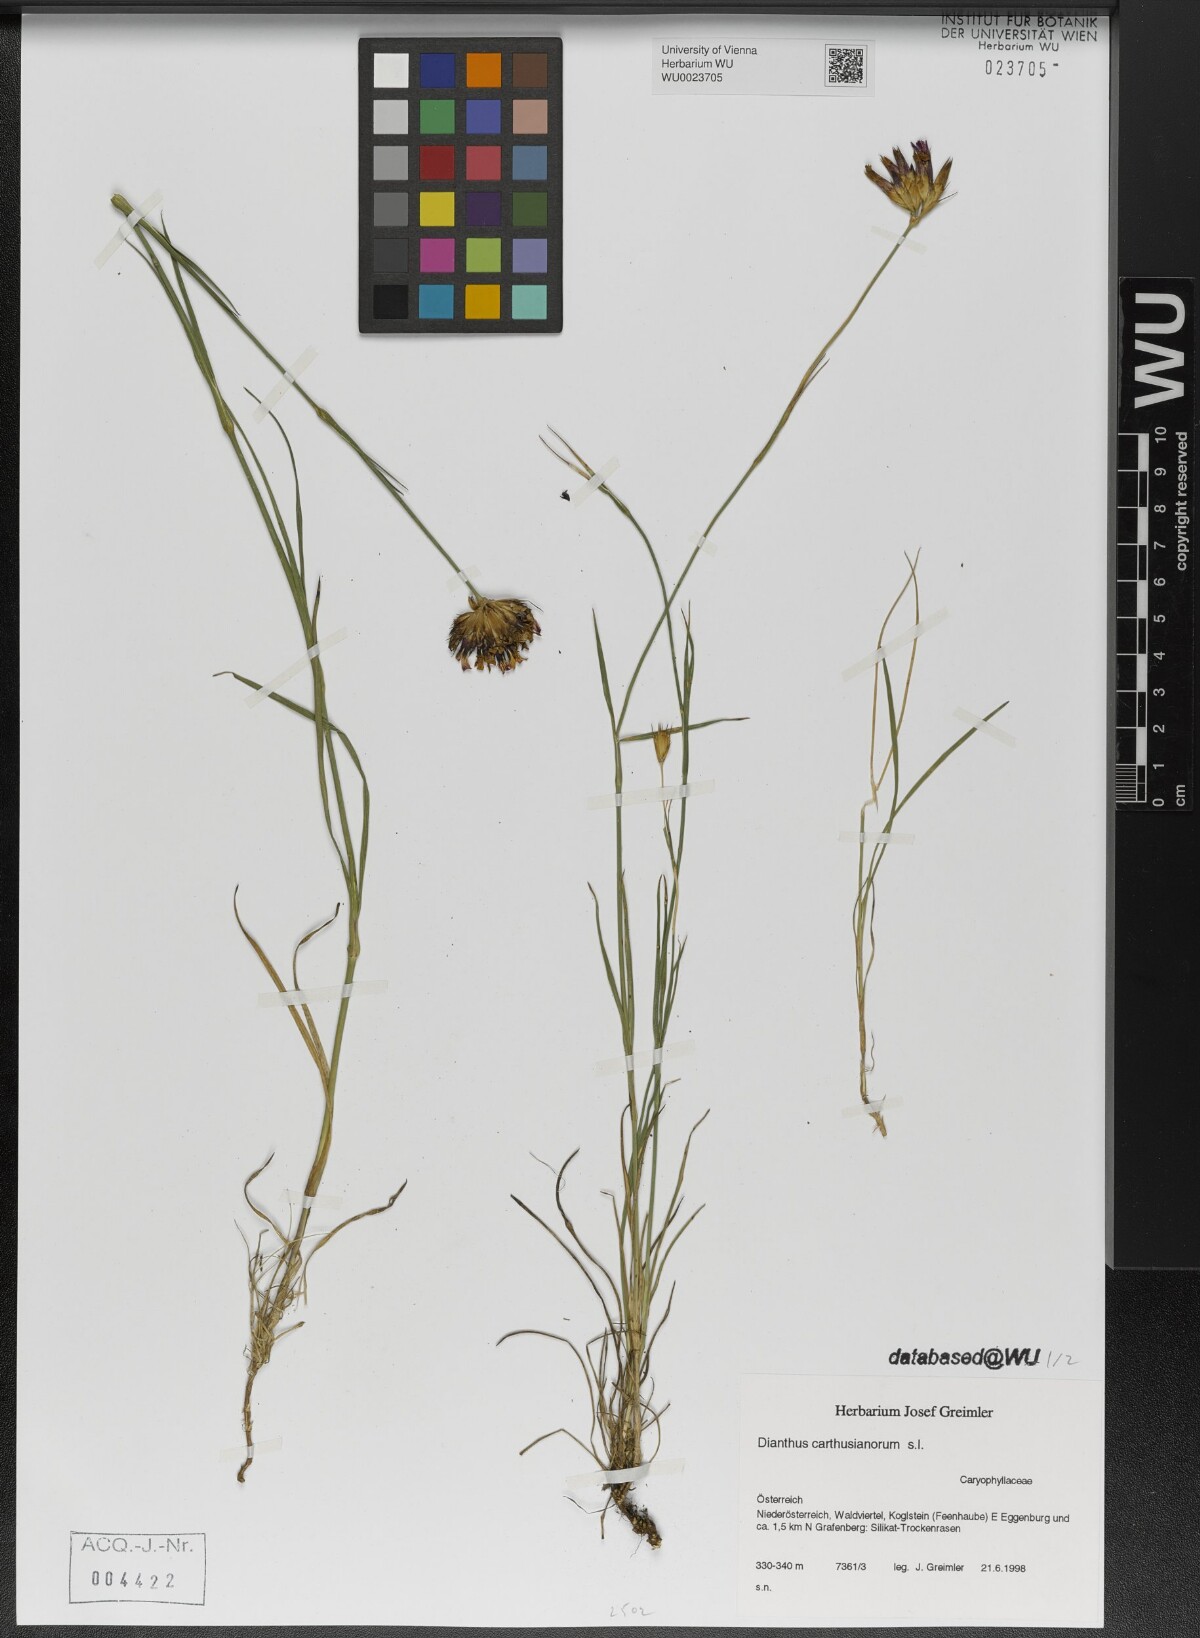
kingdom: Plantae
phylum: Tracheophyta
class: Magnoliopsida
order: Caryophyllales
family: Caryophyllaceae
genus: Dianthus
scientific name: Dianthus carthusianorum
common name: Carthusian pink
